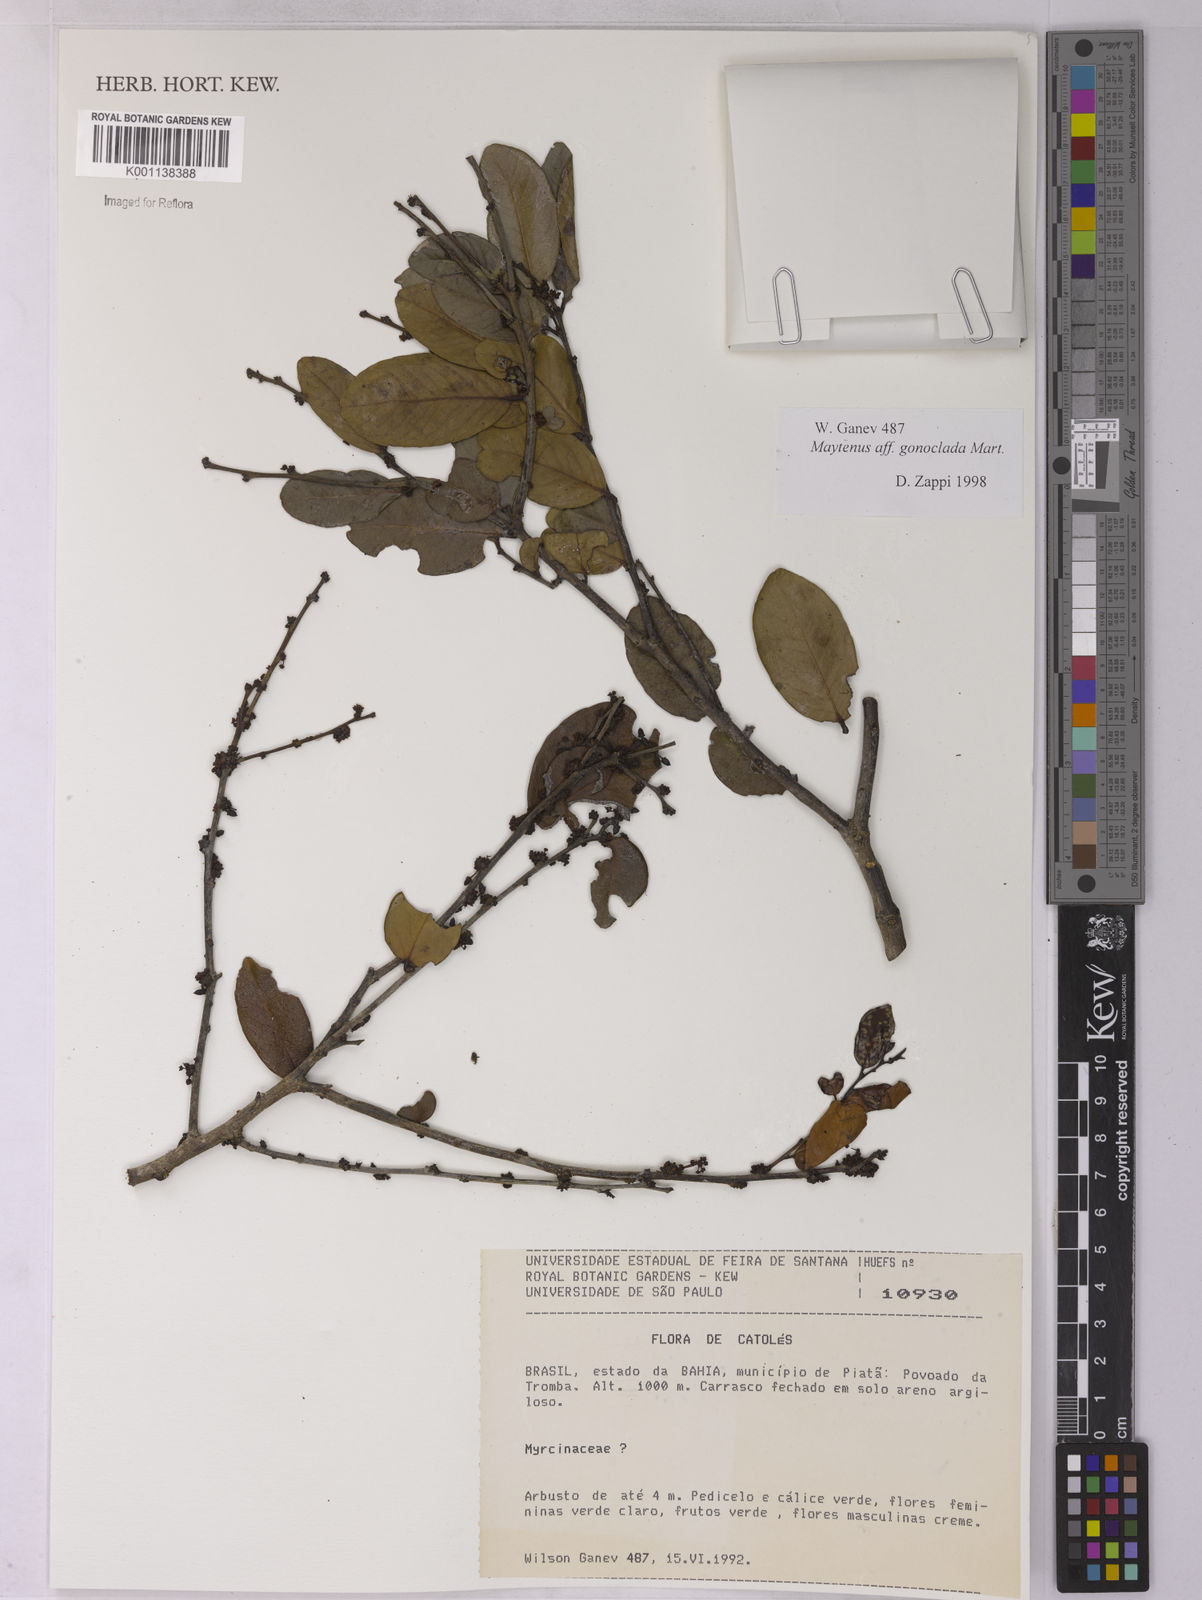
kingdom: Plantae
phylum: Tracheophyta
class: Magnoliopsida
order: Celastrales
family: Celastraceae
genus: Monteverdia
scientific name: Monteverdia gonoclada
